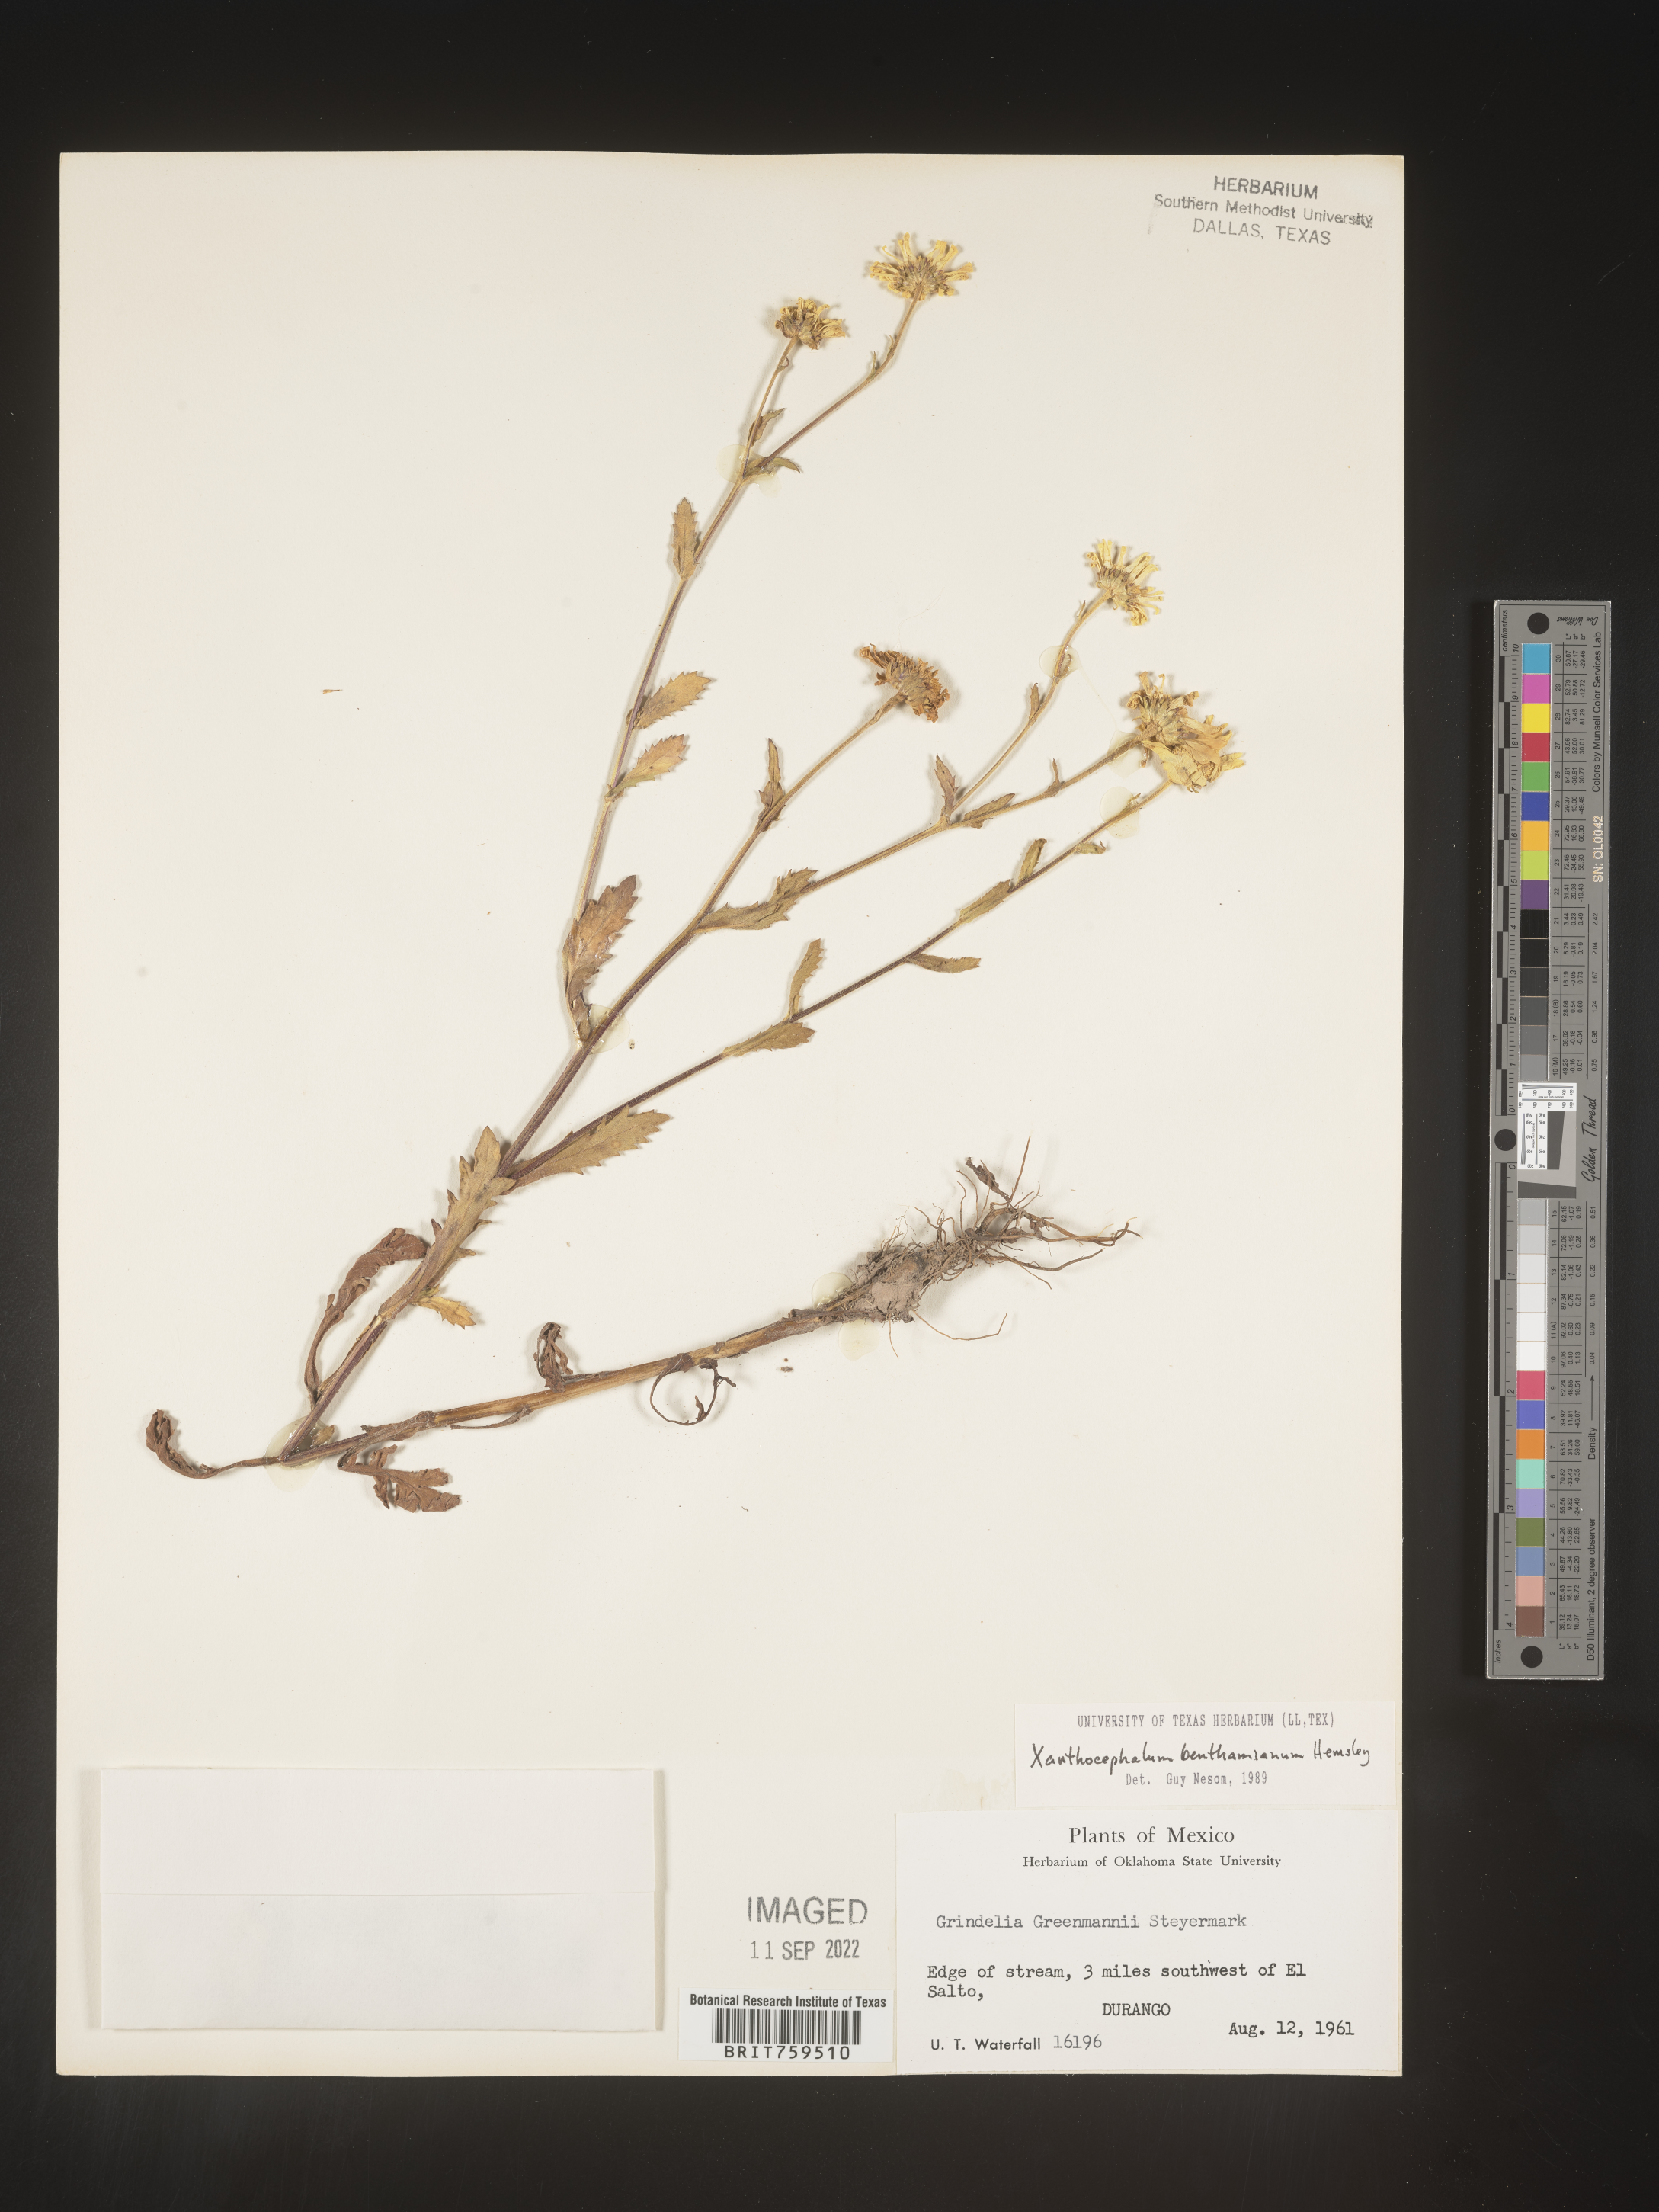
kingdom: Plantae
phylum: Tracheophyta
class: Magnoliopsida
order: Asterales
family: Asteraceae
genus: Xanthocephalum
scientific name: Xanthocephalum benthamianum
